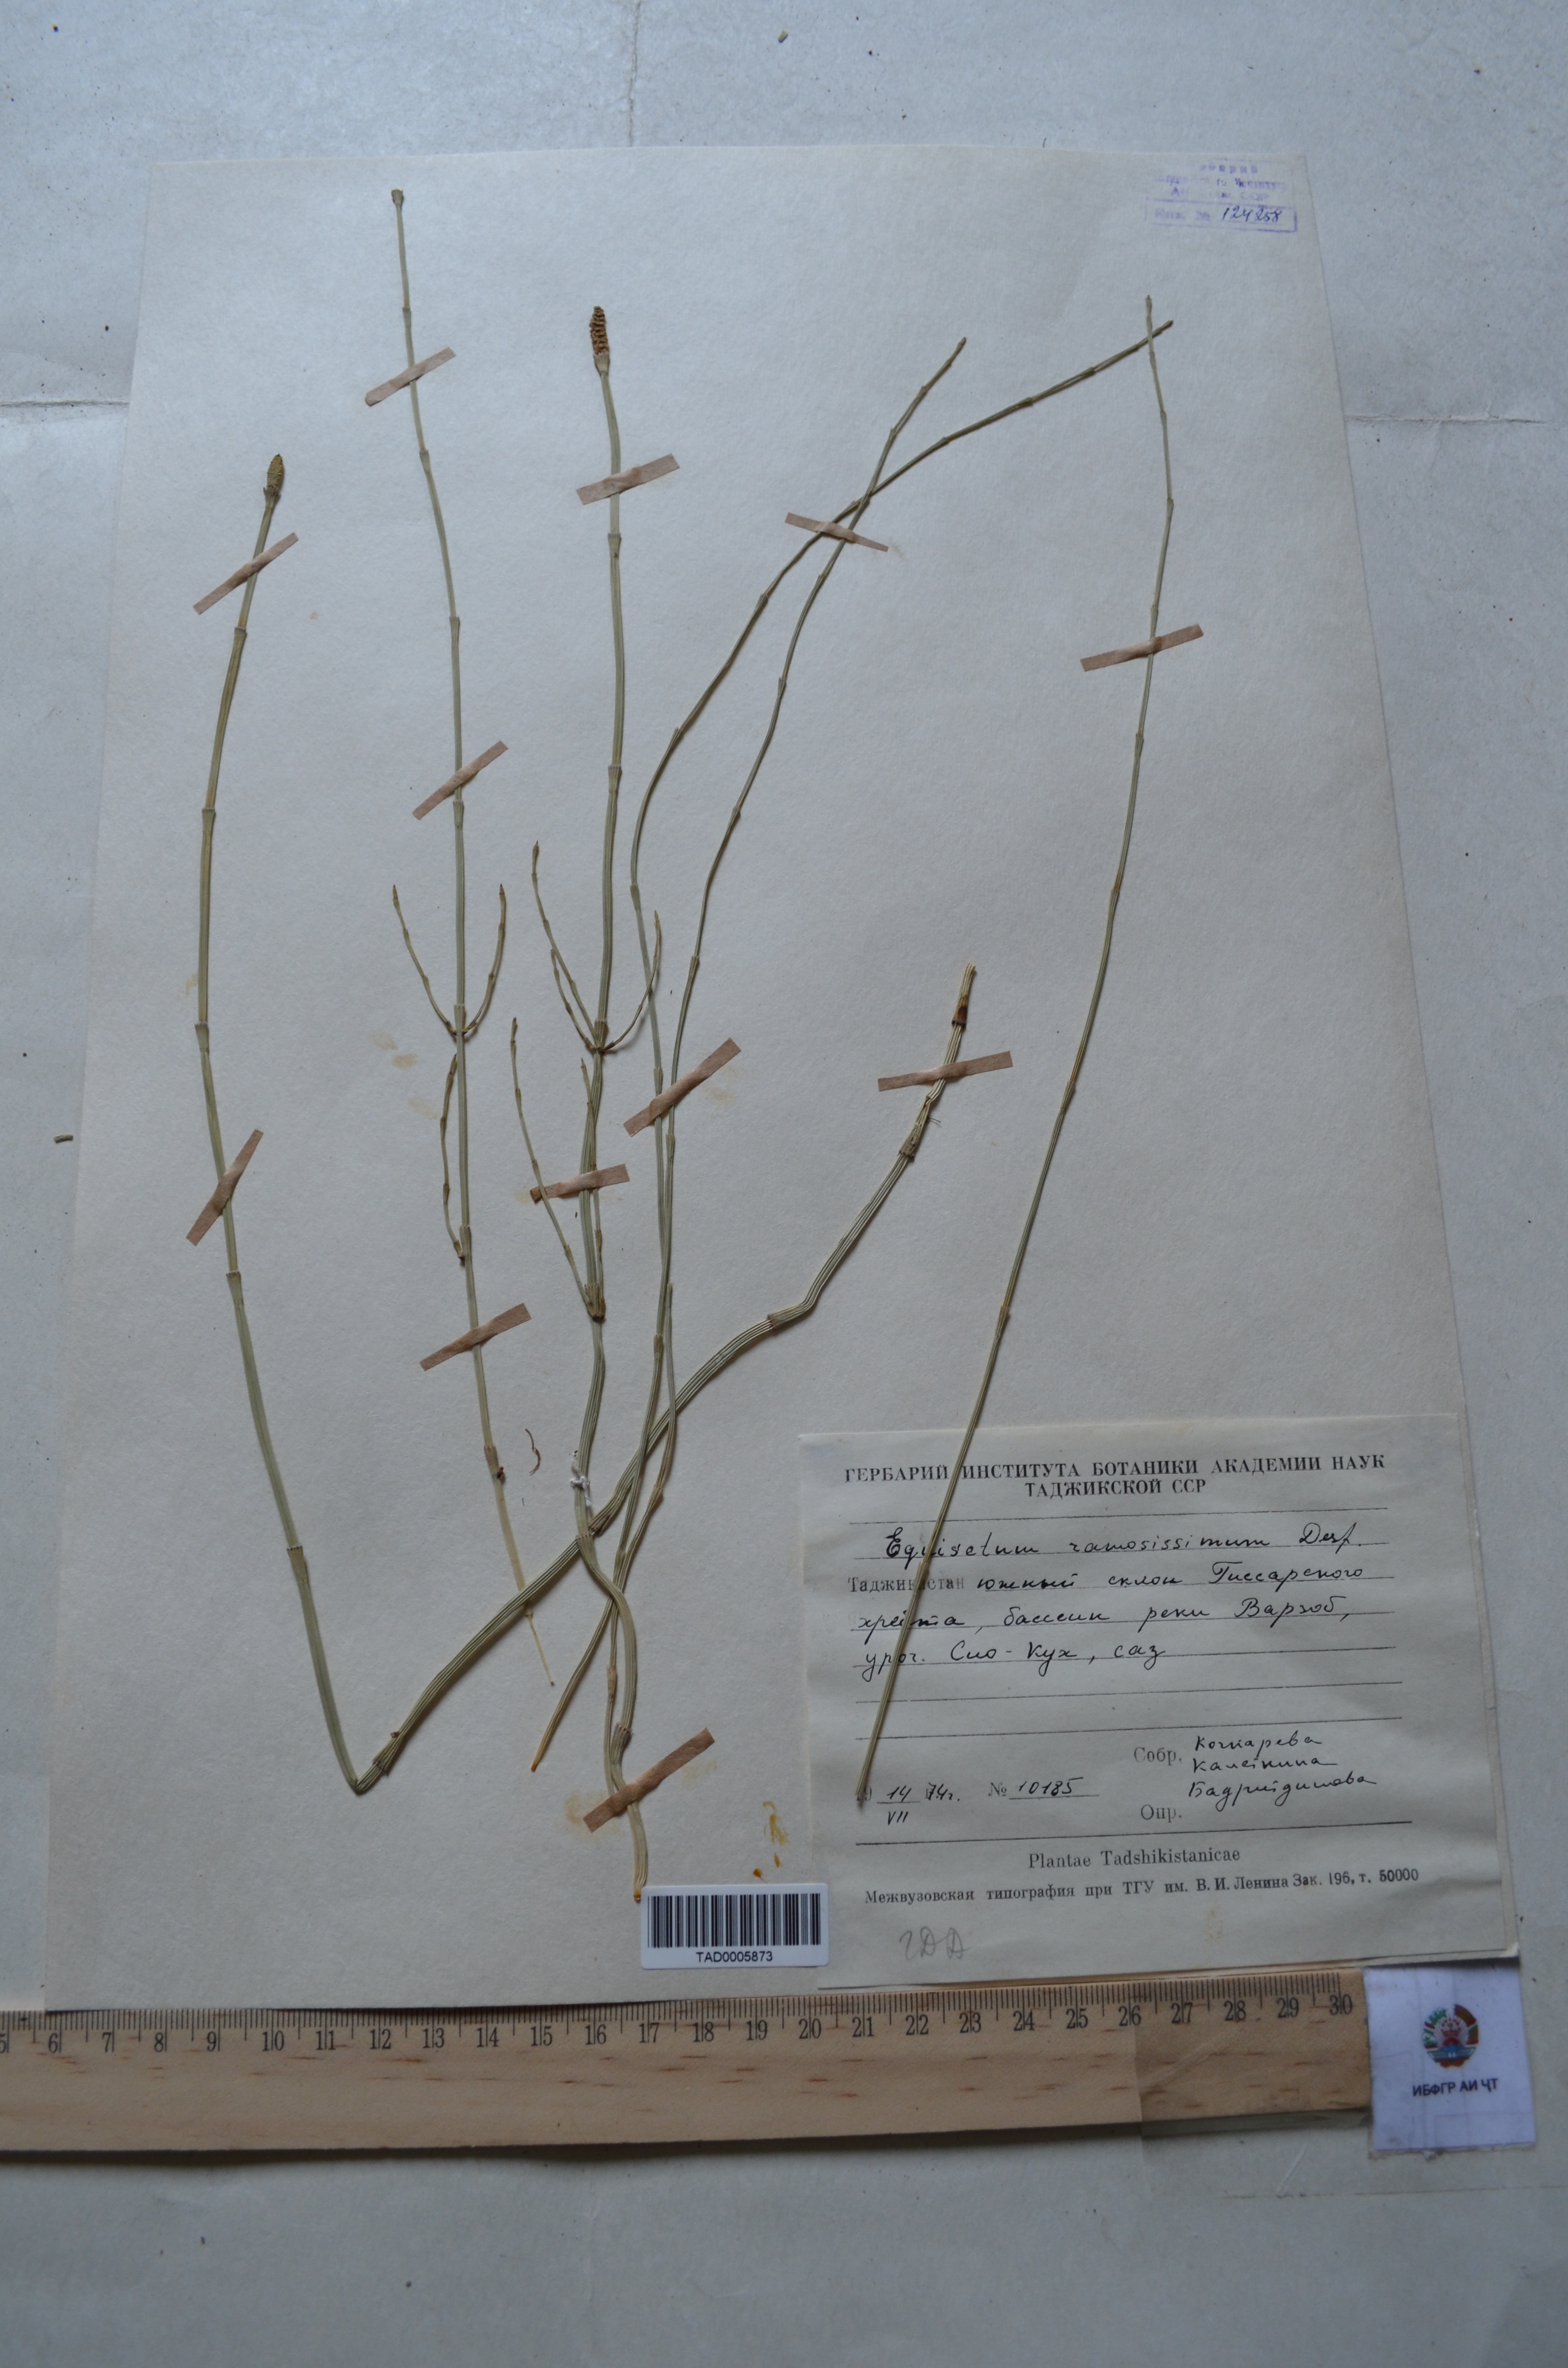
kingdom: Plantae
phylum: Tracheophyta
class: Polypodiopsida
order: Equisetales
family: Equisetaceae
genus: Equisetum
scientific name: Equisetum ramosissimum
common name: Branched horsetail
